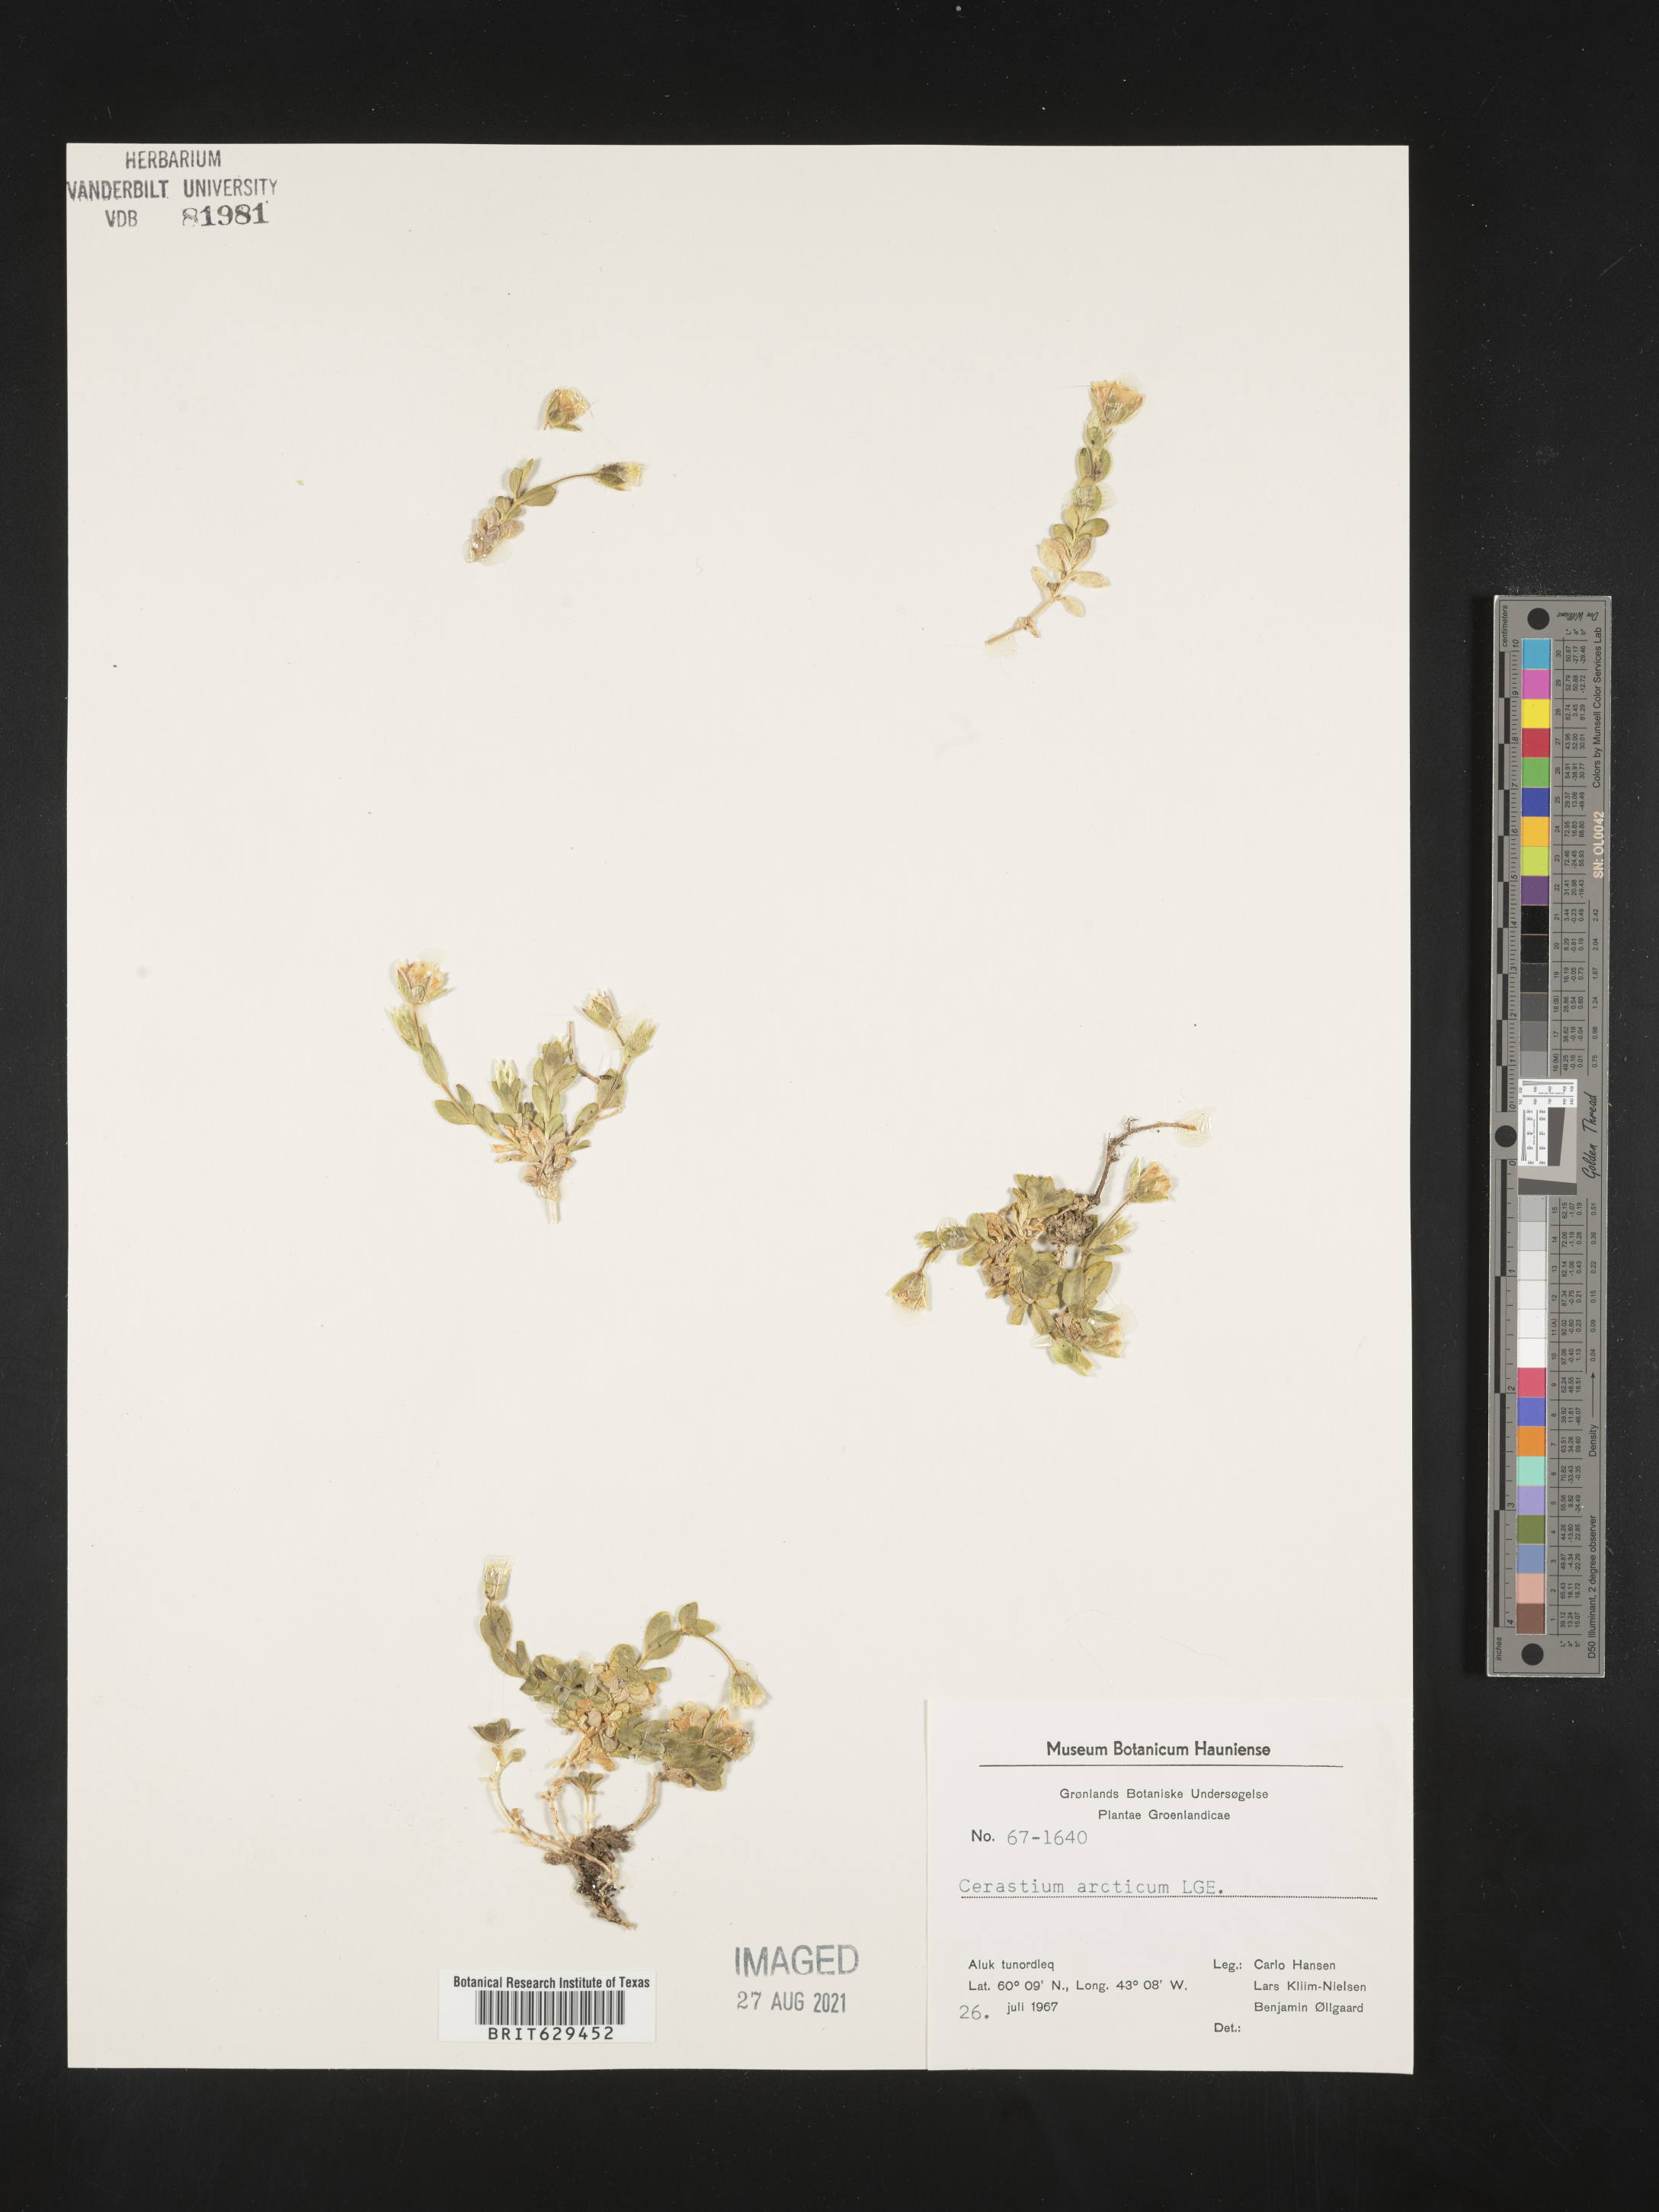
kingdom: Plantae
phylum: Tracheophyta
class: Magnoliopsida
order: Caryophyllales
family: Caryophyllaceae
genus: Cerastium
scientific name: Cerastium arcticum
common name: Arctic mouse-ear
